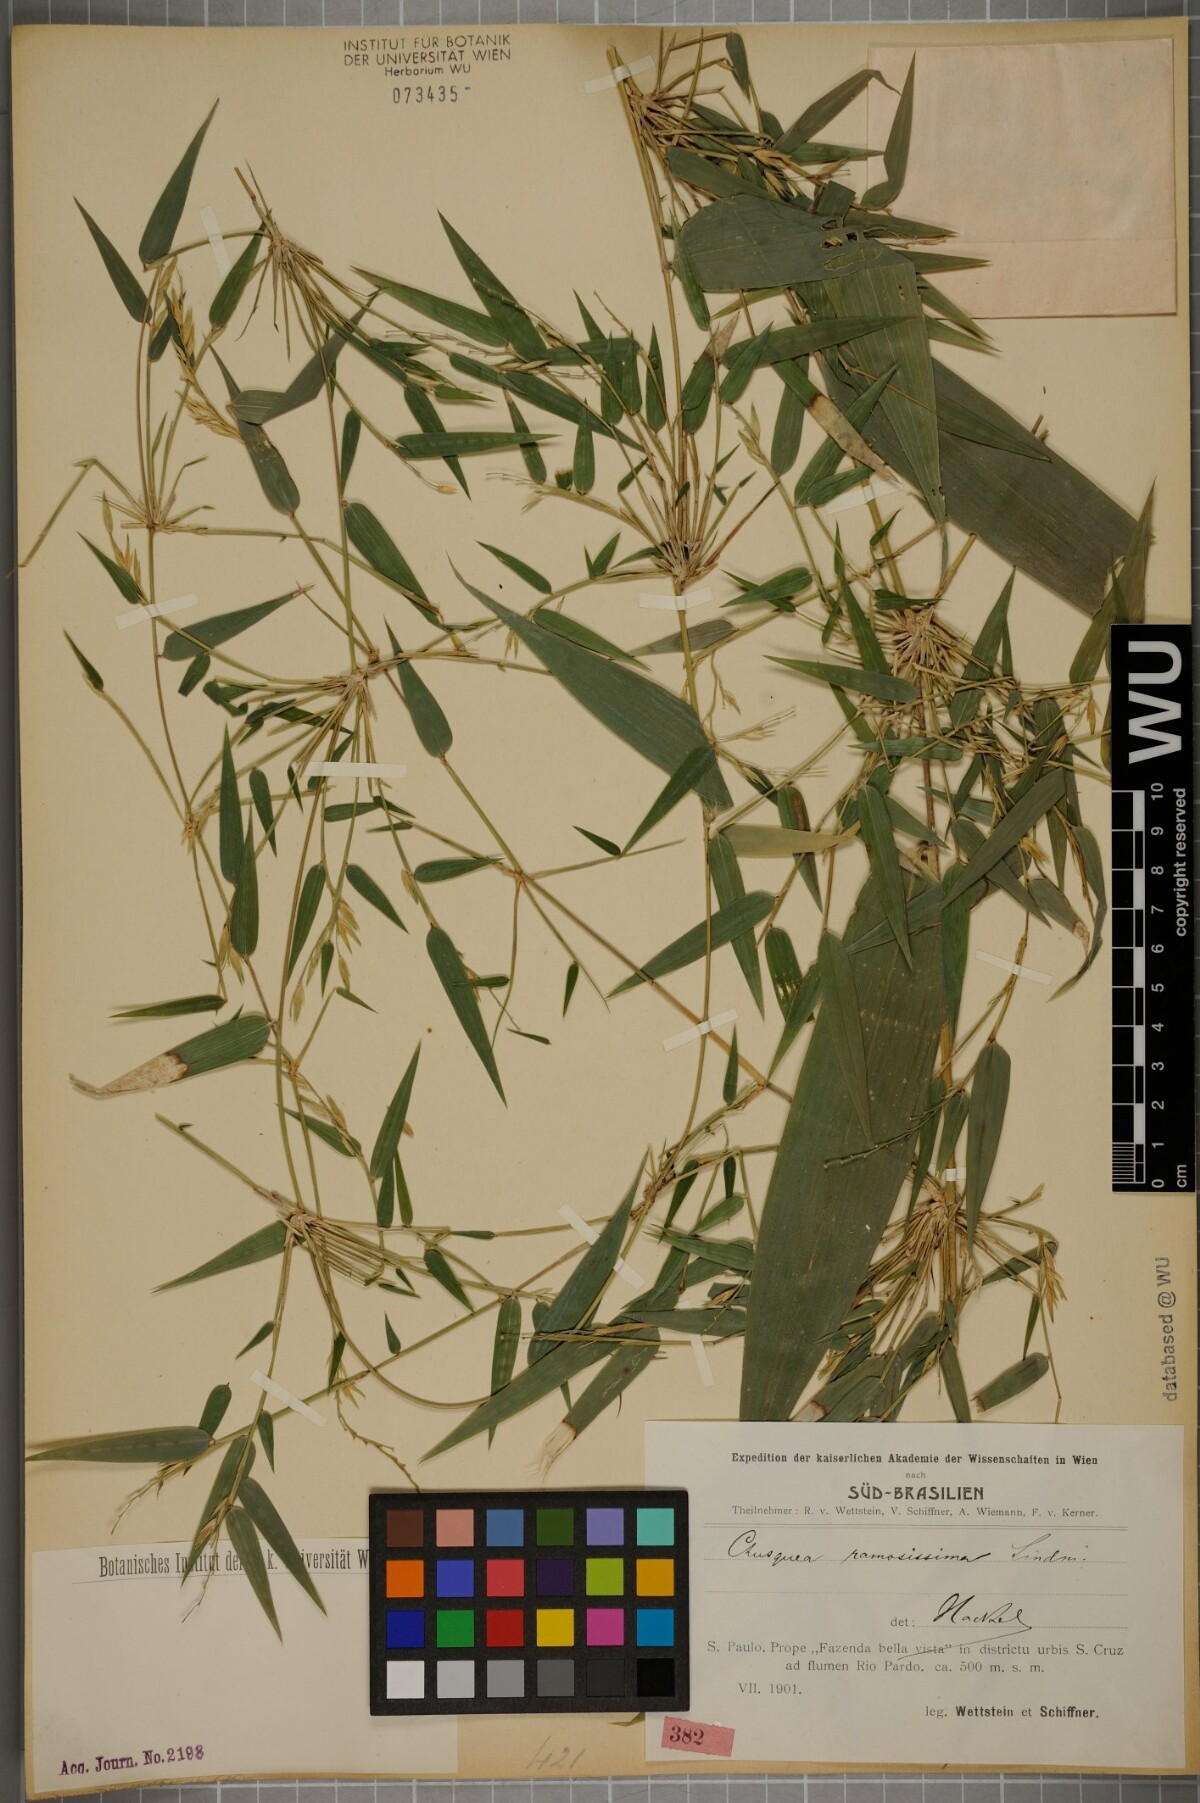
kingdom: Plantae
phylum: Tracheophyta
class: Liliopsida
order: Poales
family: Poaceae
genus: Chusquea
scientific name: Chusquea ramosissima
